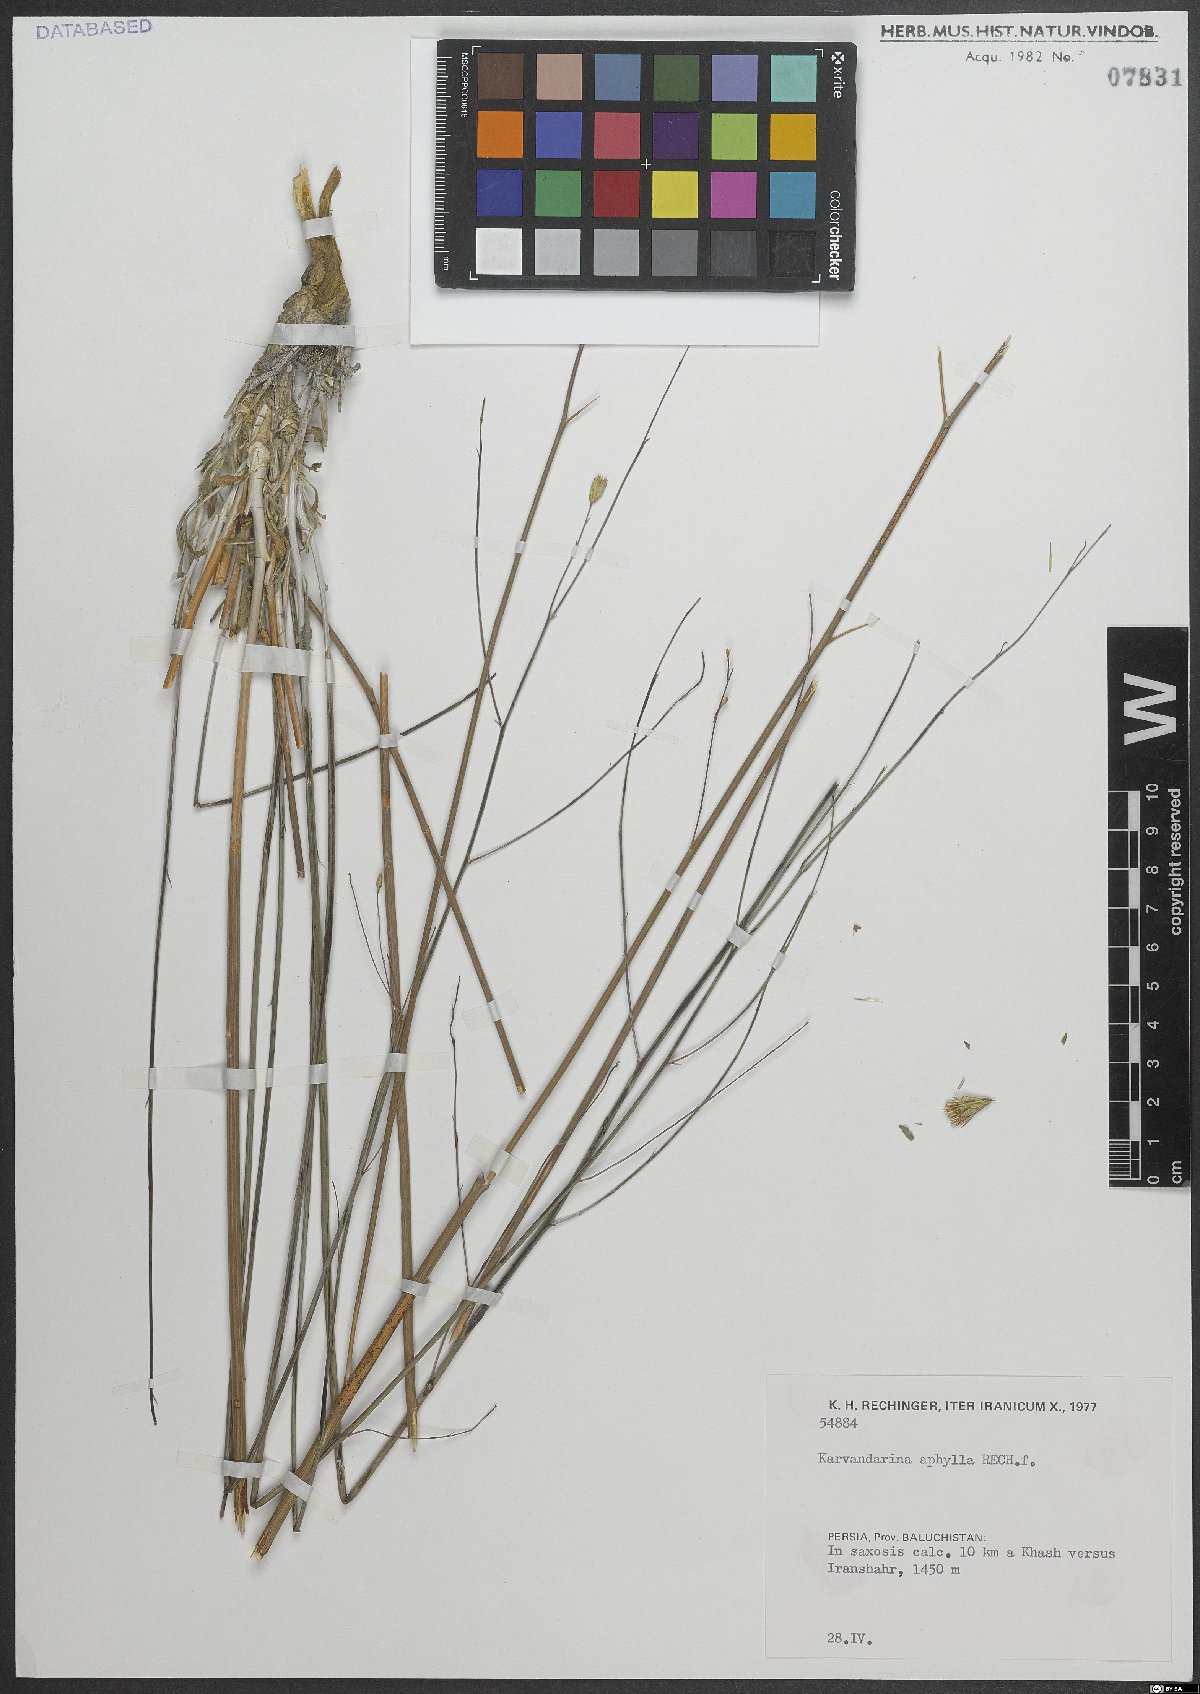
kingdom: Plantae
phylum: Tracheophyta
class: Magnoliopsida
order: Asterales
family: Asteraceae
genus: Karvandarina
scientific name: Karvandarina aphylla
